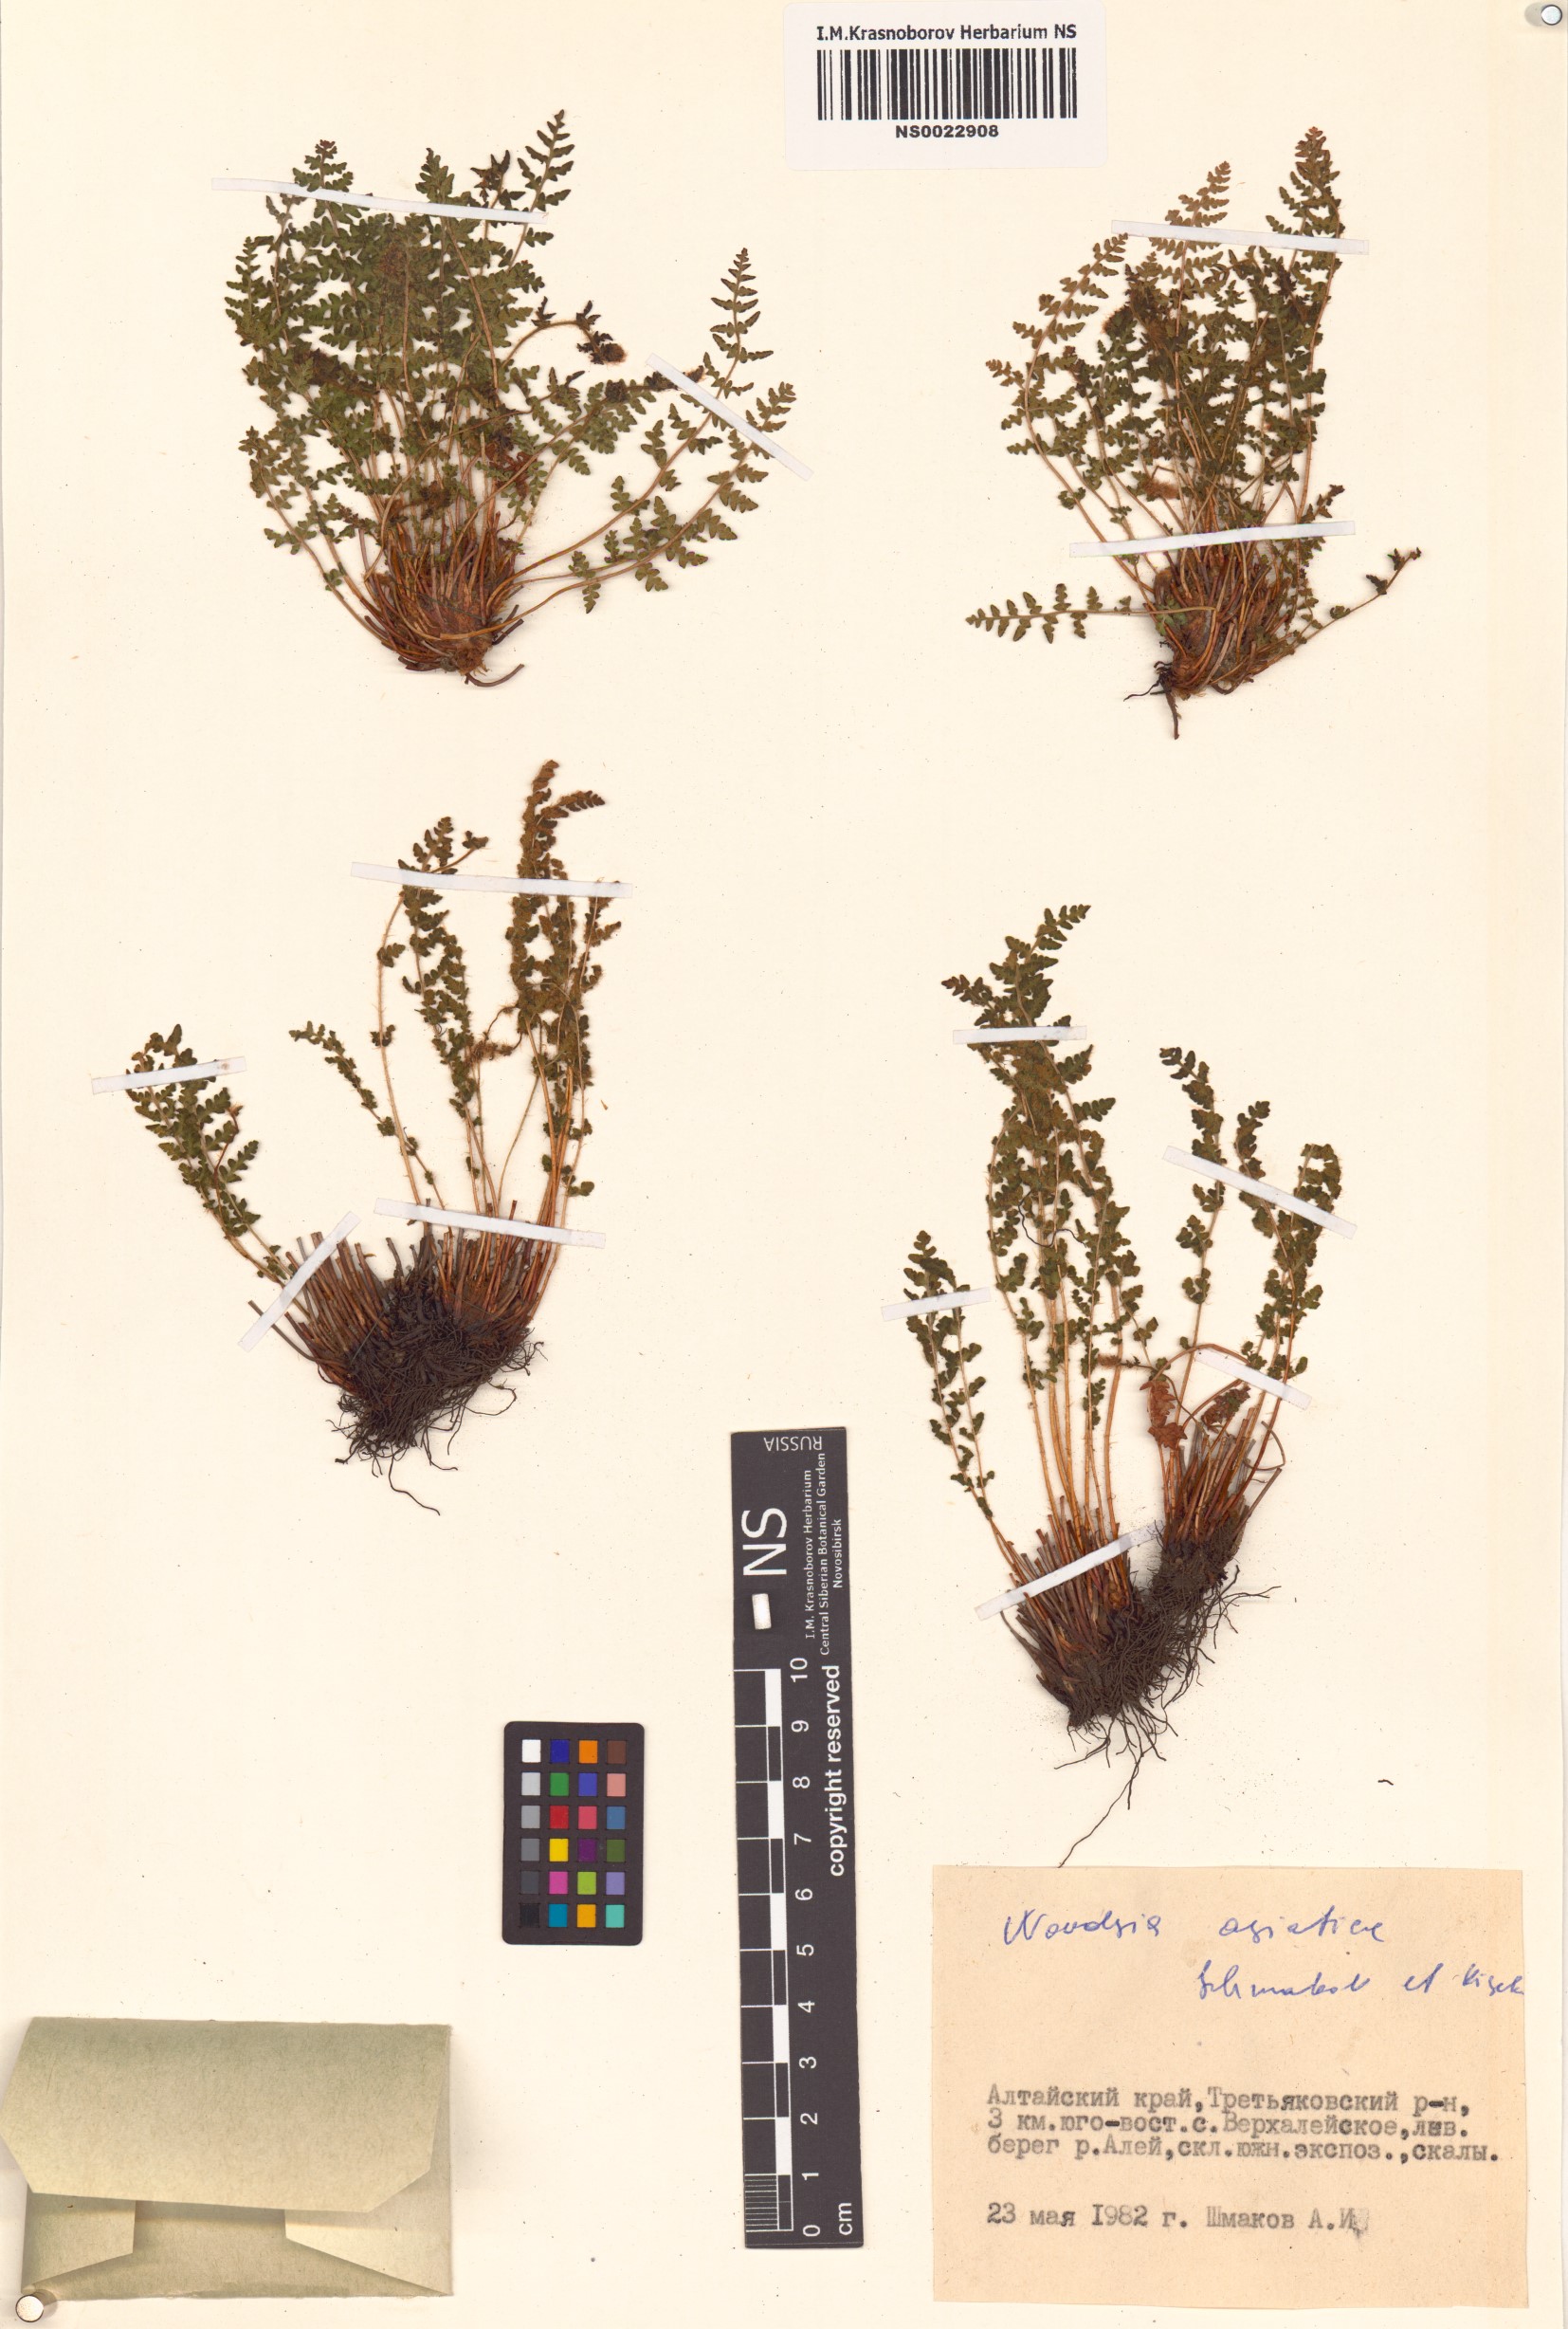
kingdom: Plantae
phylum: Tracheophyta
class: Polypodiopsida
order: Polypodiales
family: Woodsiaceae
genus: Woodsia
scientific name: Woodsia asiatica
